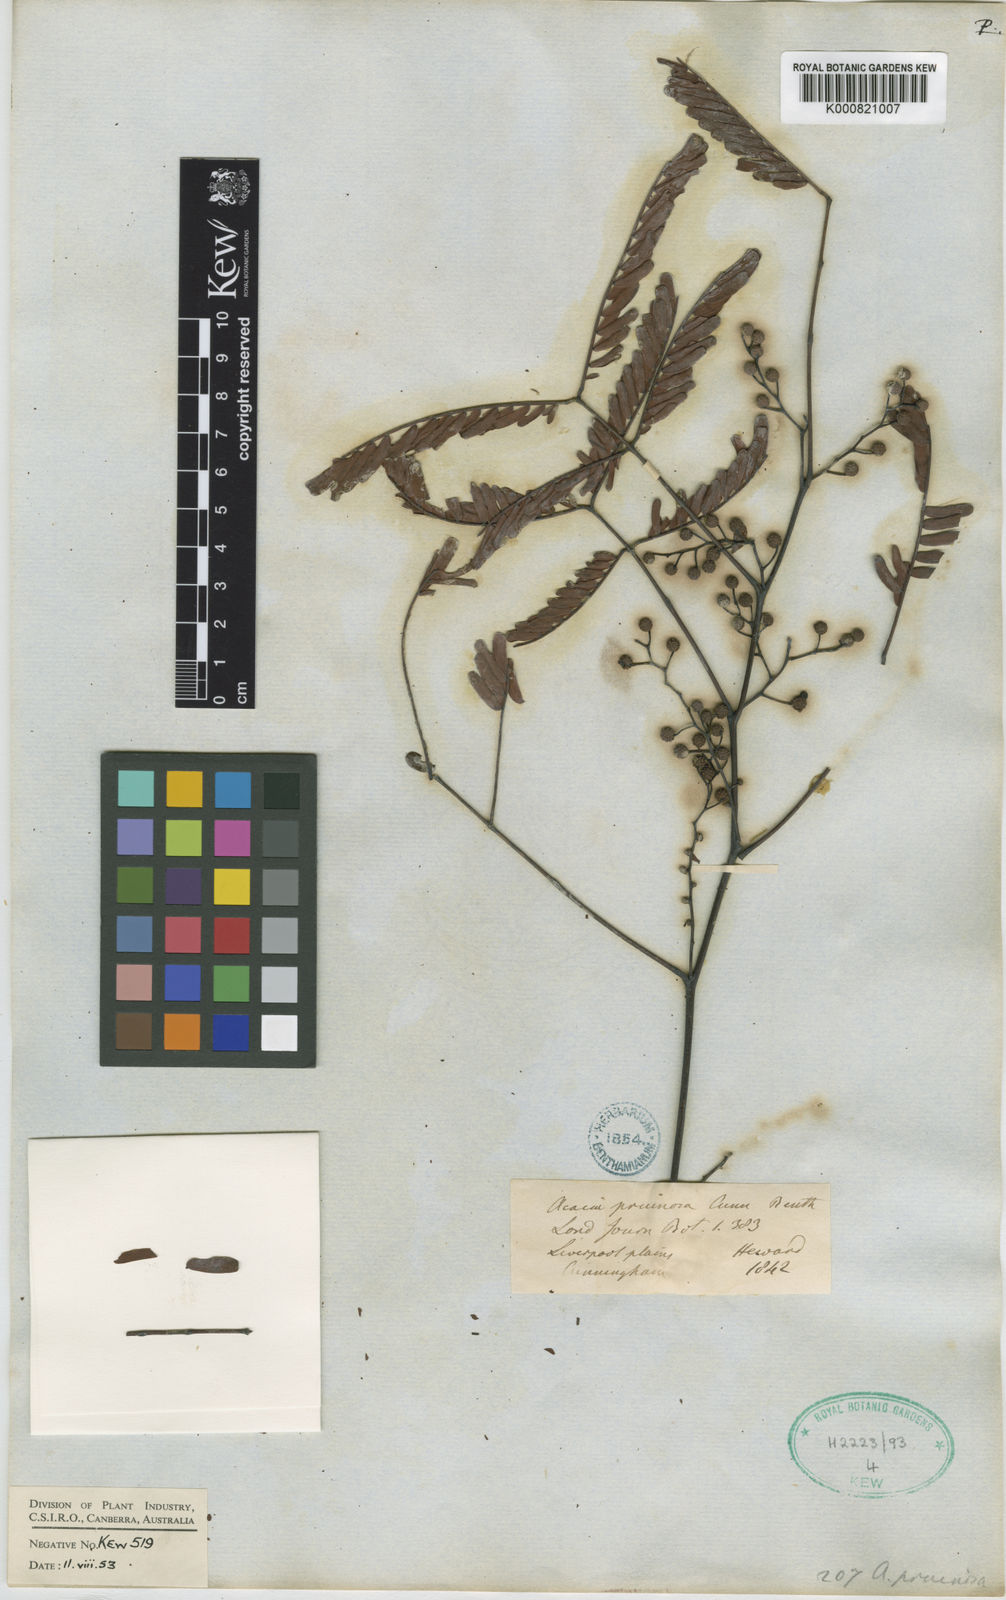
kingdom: Plantae
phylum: Tracheophyta
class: Magnoliopsida
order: Fabales
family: Fabaceae
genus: Acacia
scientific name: Acacia pruinosa
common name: Frosty wattle
